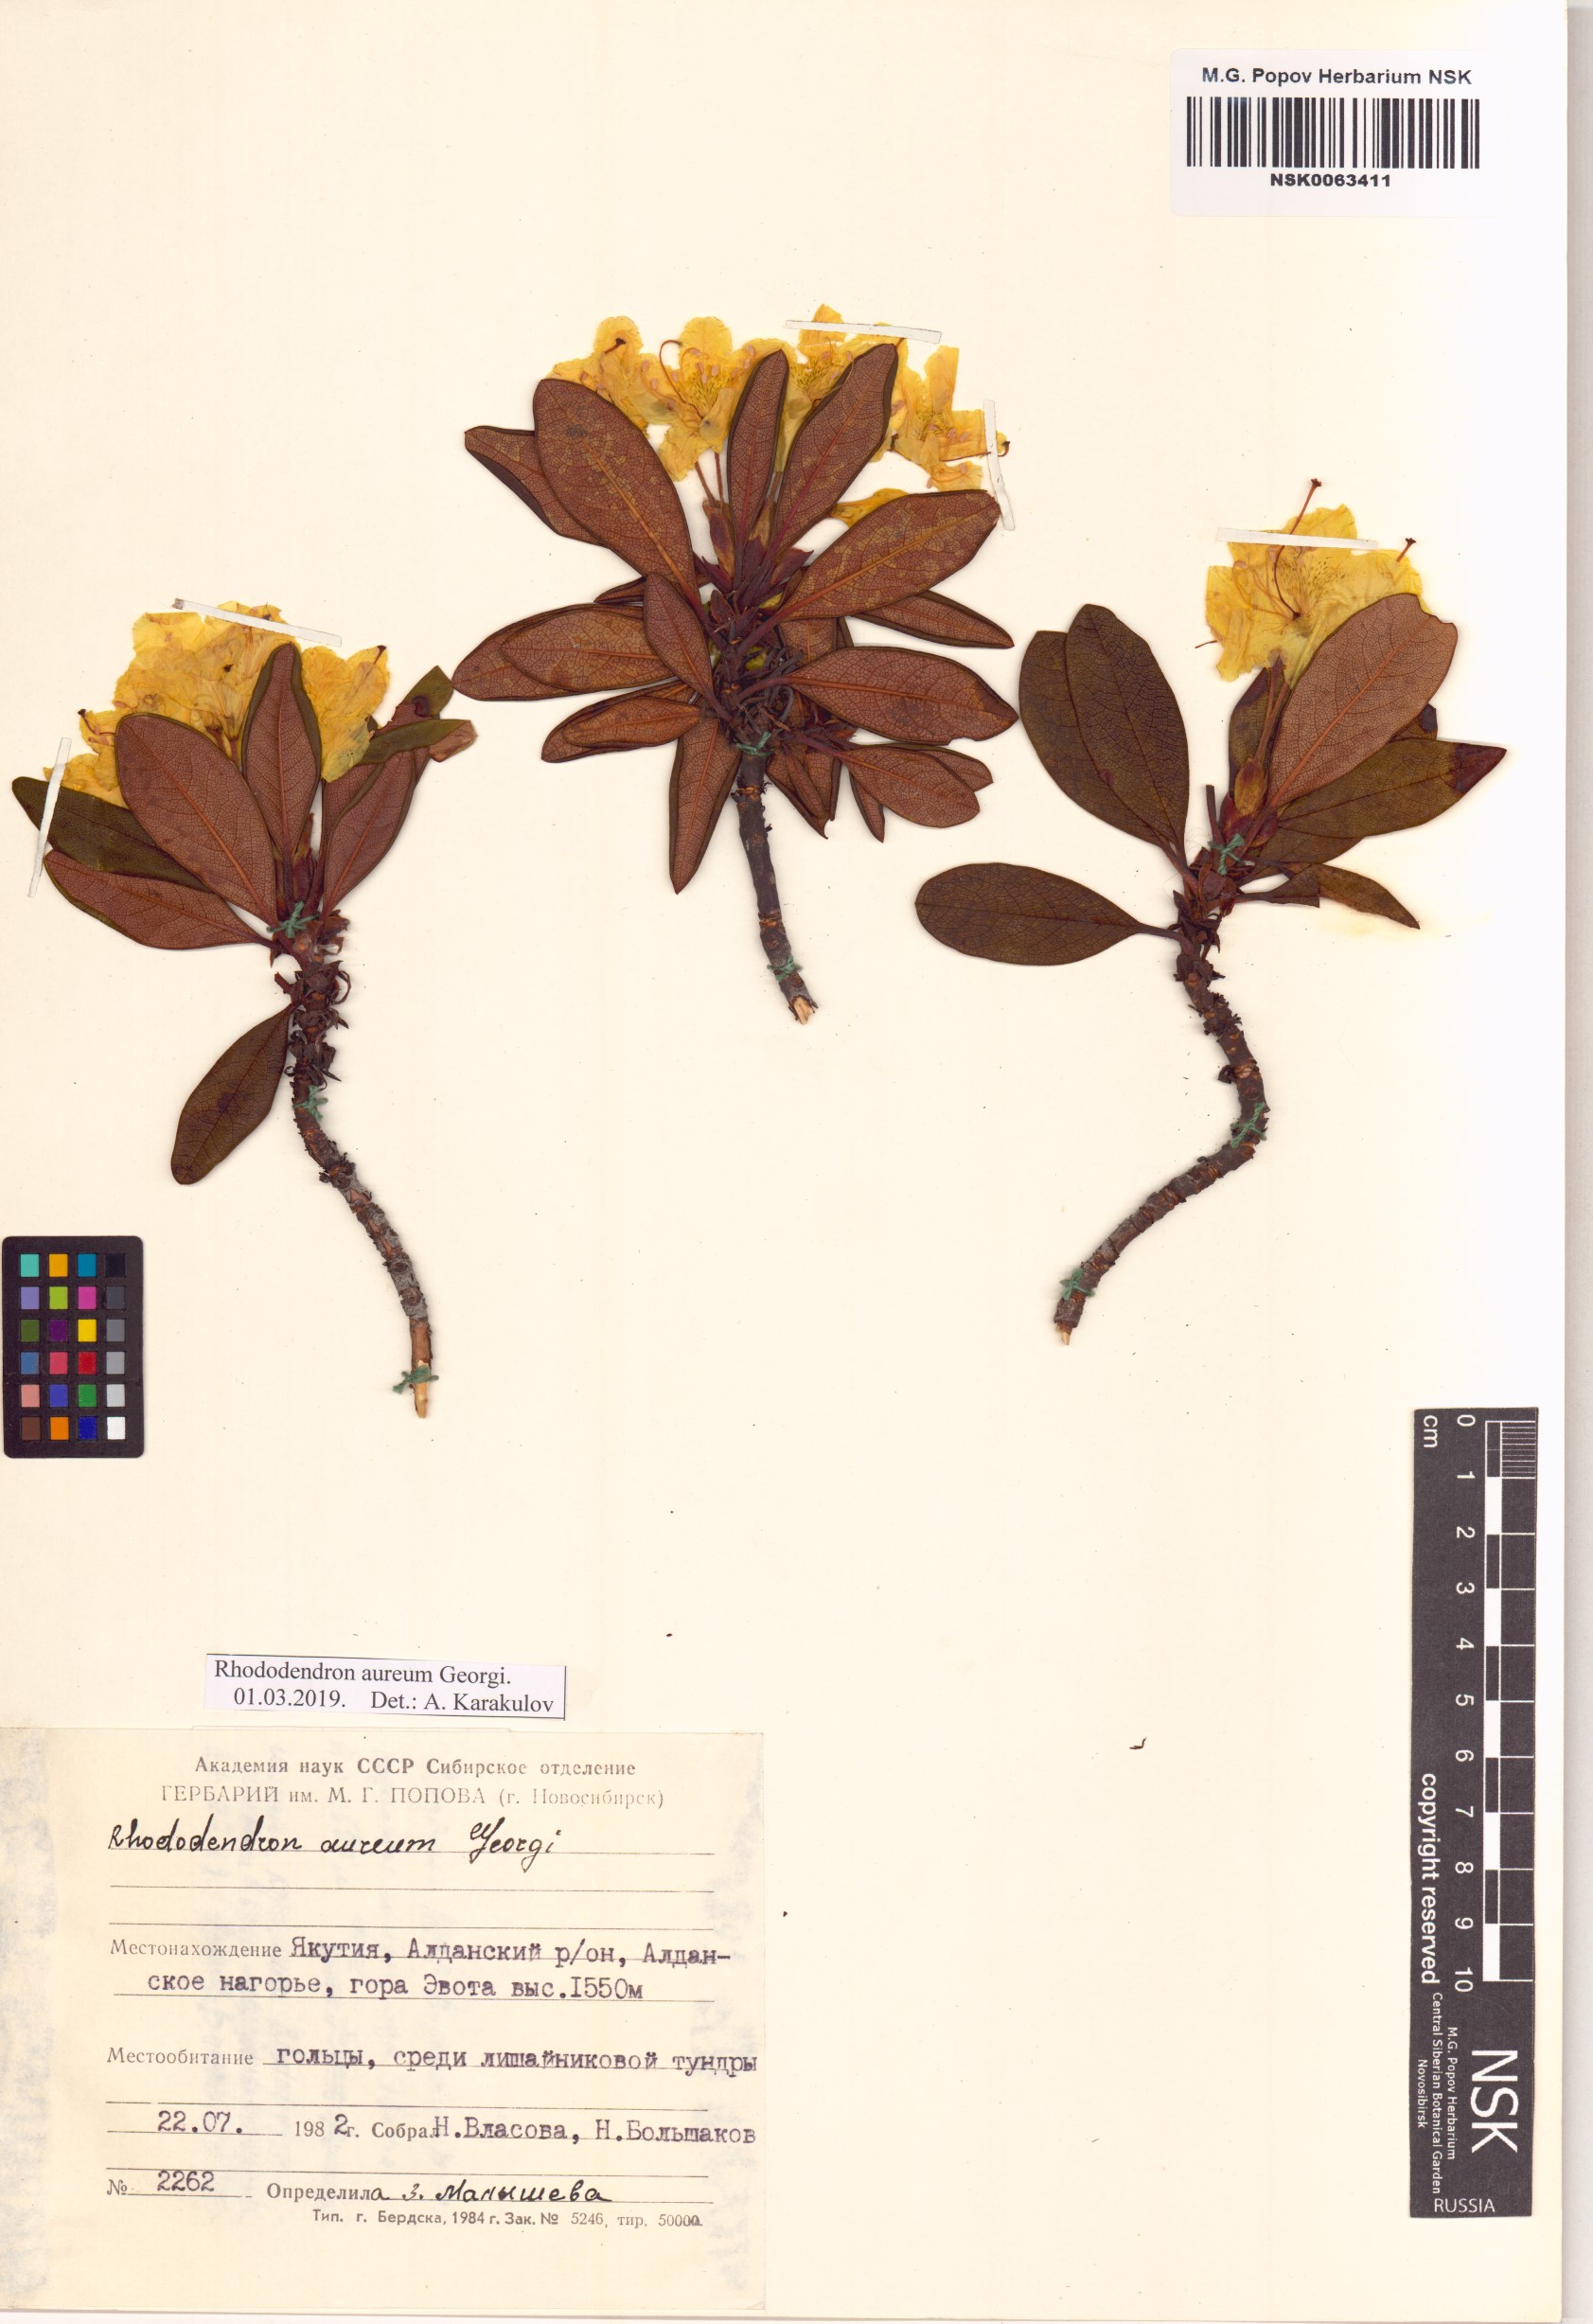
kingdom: Plantae
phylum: Tracheophyta
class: Magnoliopsida
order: Ericales
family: Ericaceae
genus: Rhododendron
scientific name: Rhododendron aureum
